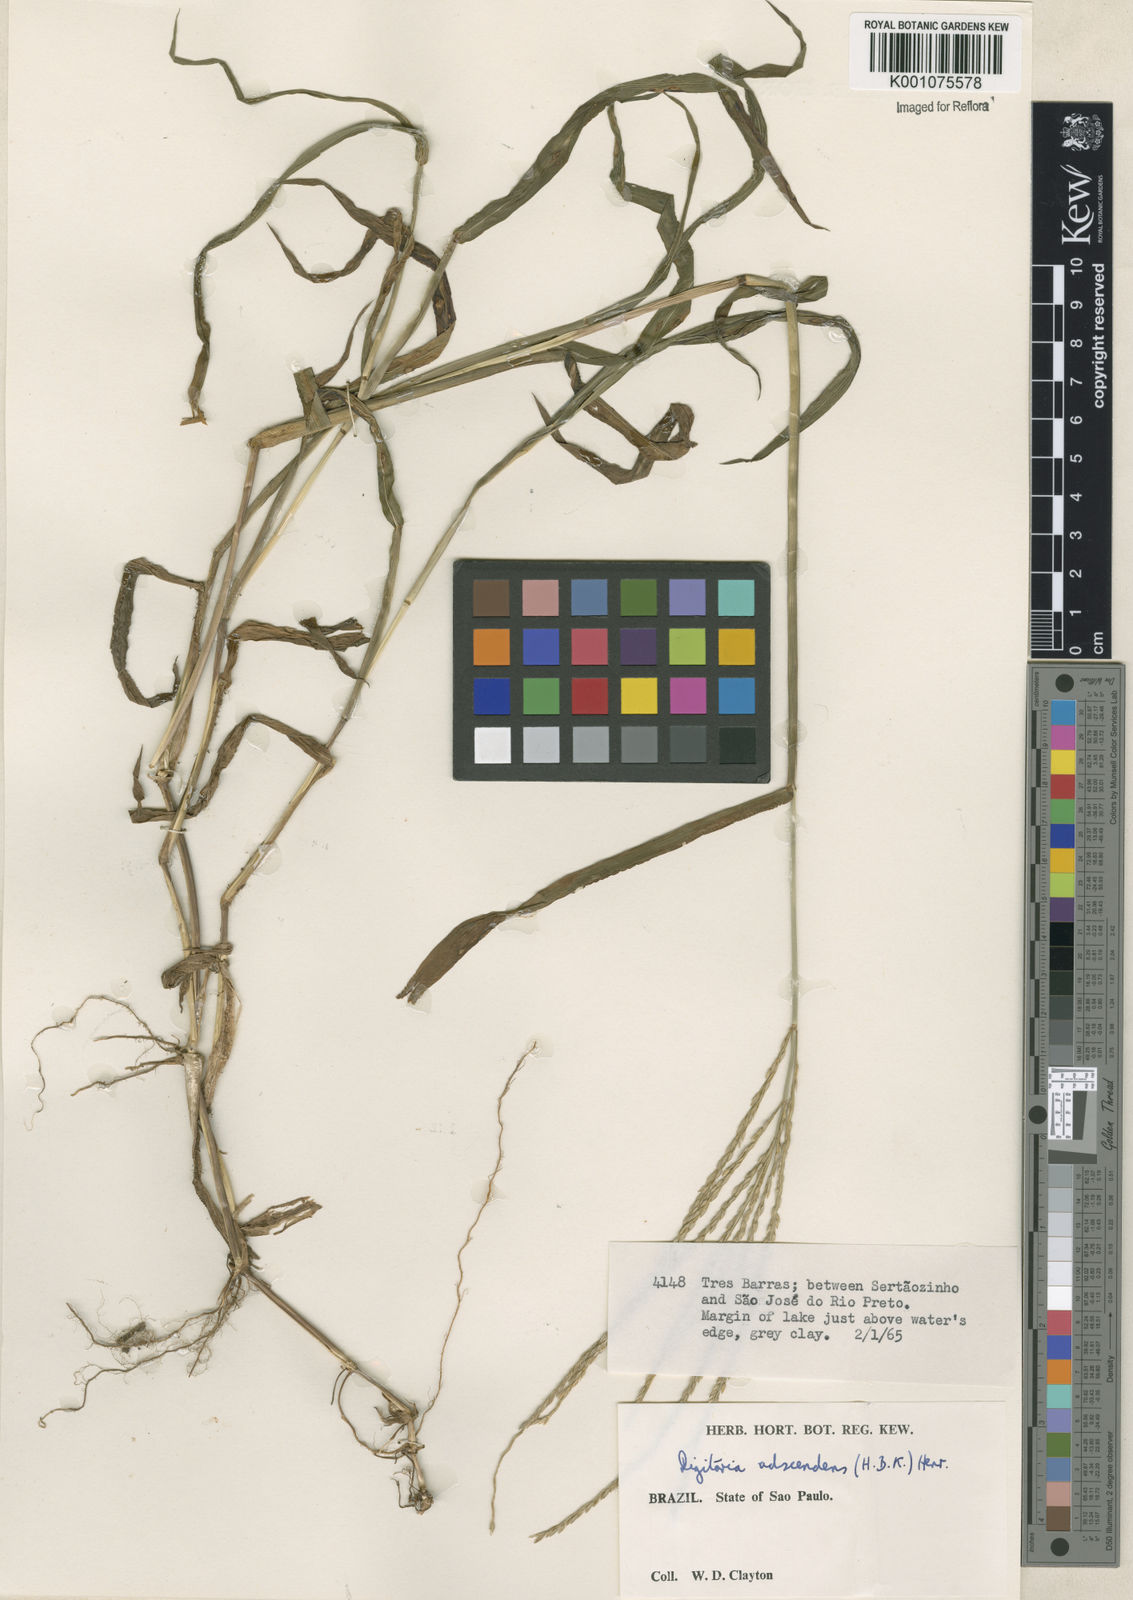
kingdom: Plantae
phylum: Tracheophyta
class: Liliopsida
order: Poales
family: Poaceae
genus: Digitaria
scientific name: Digitaria ciliaris
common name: Tropical finger-grass
